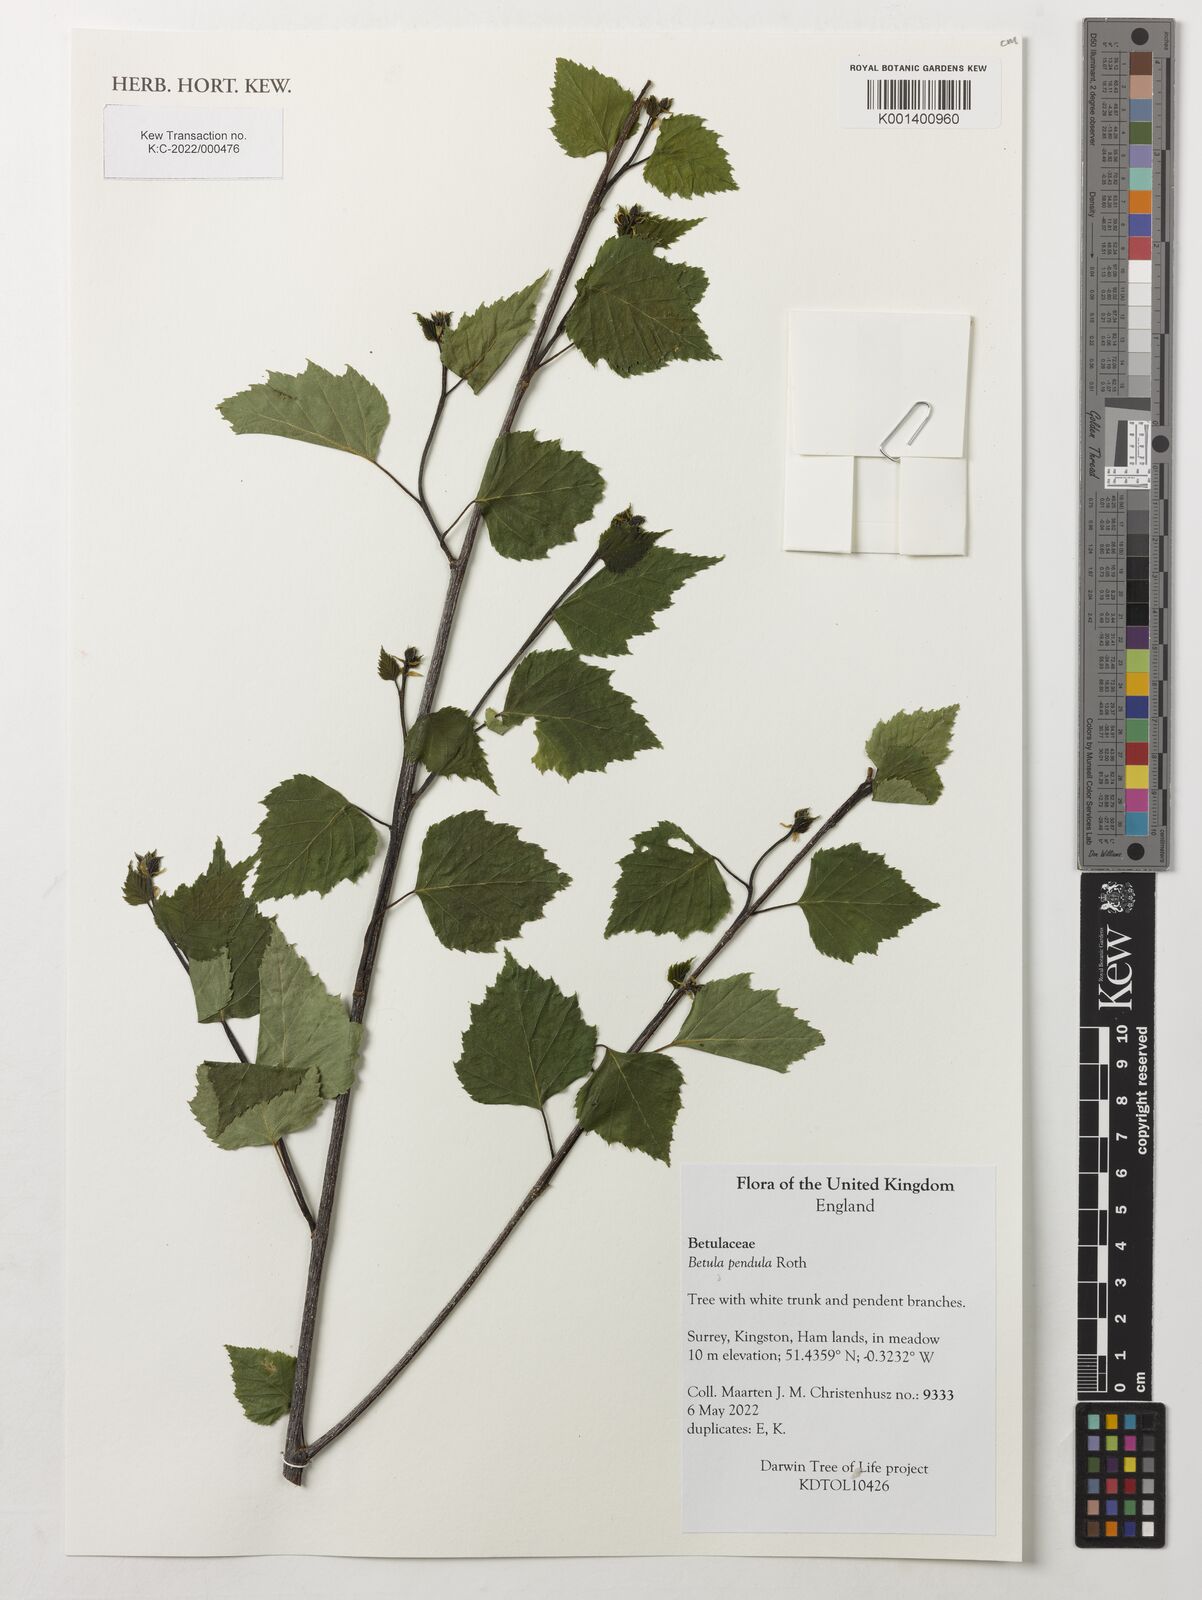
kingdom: Plantae
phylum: Tracheophyta
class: Magnoliopsida
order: Fagales
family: Betulaceae
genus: Betula
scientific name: Betula pendula
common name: Silver birch
